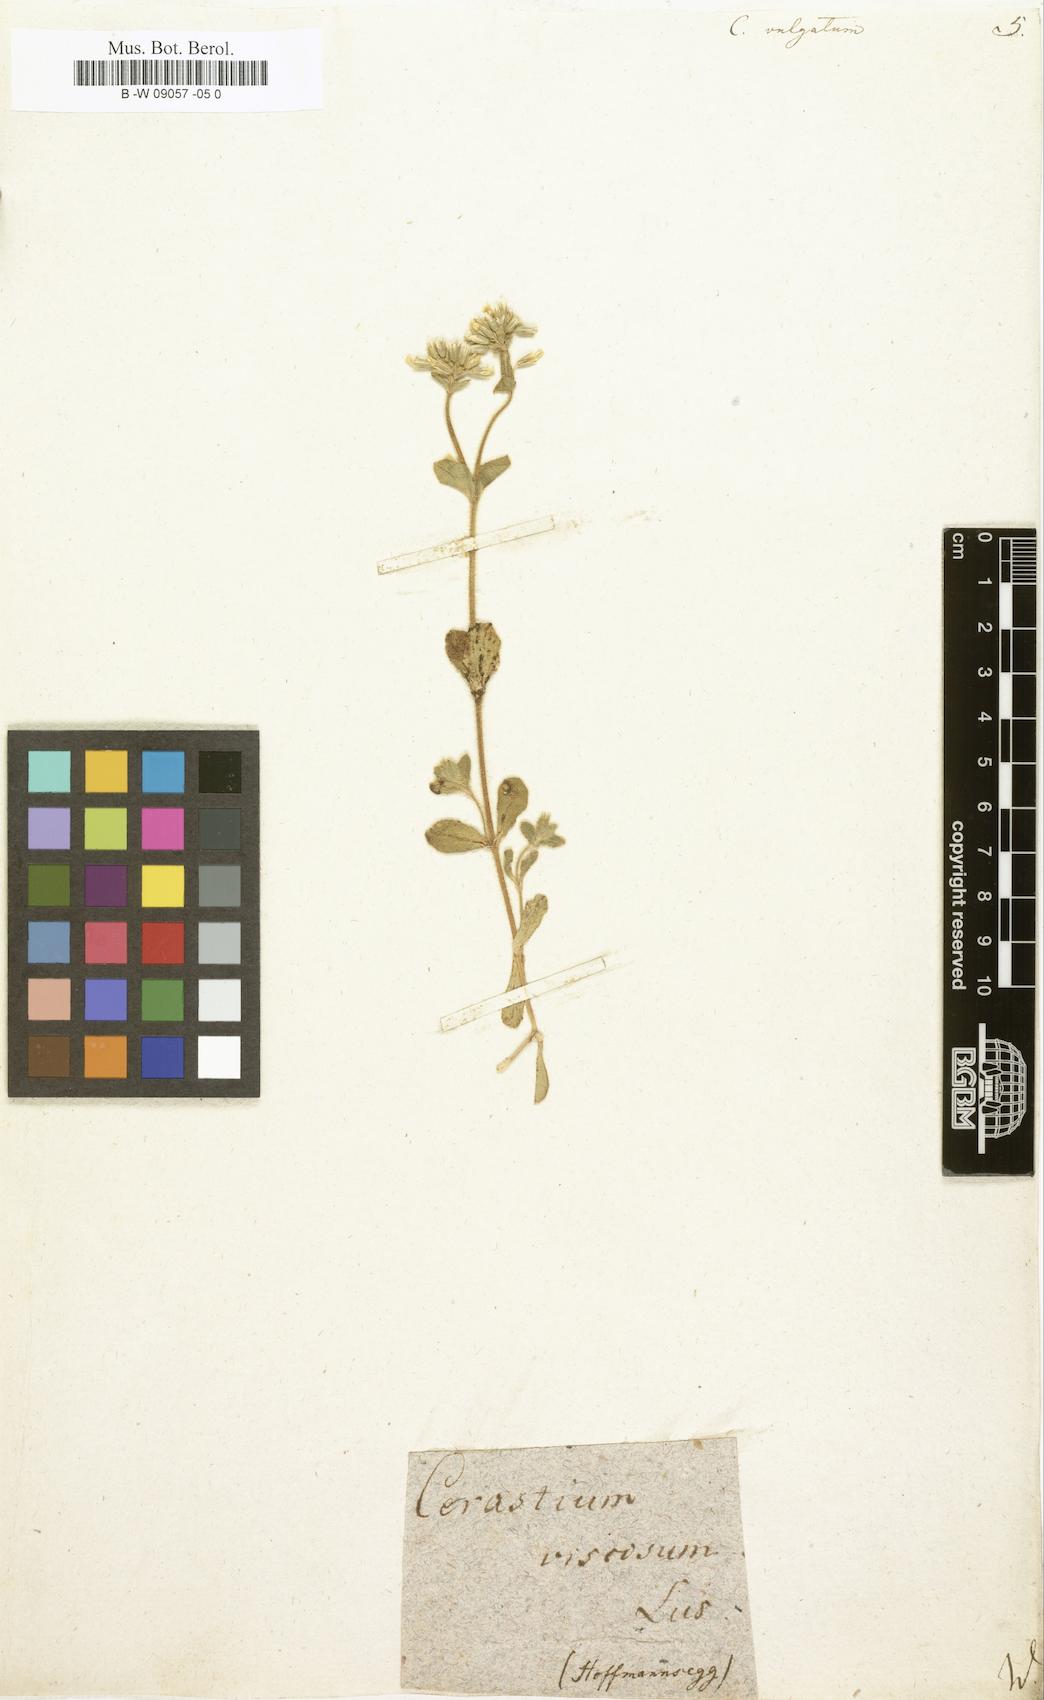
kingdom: Plantae
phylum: Tracheophyta
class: Magnoliopsida
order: Caryophyllales
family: Caryophyllaceae
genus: Cerastium
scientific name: Cerastium
